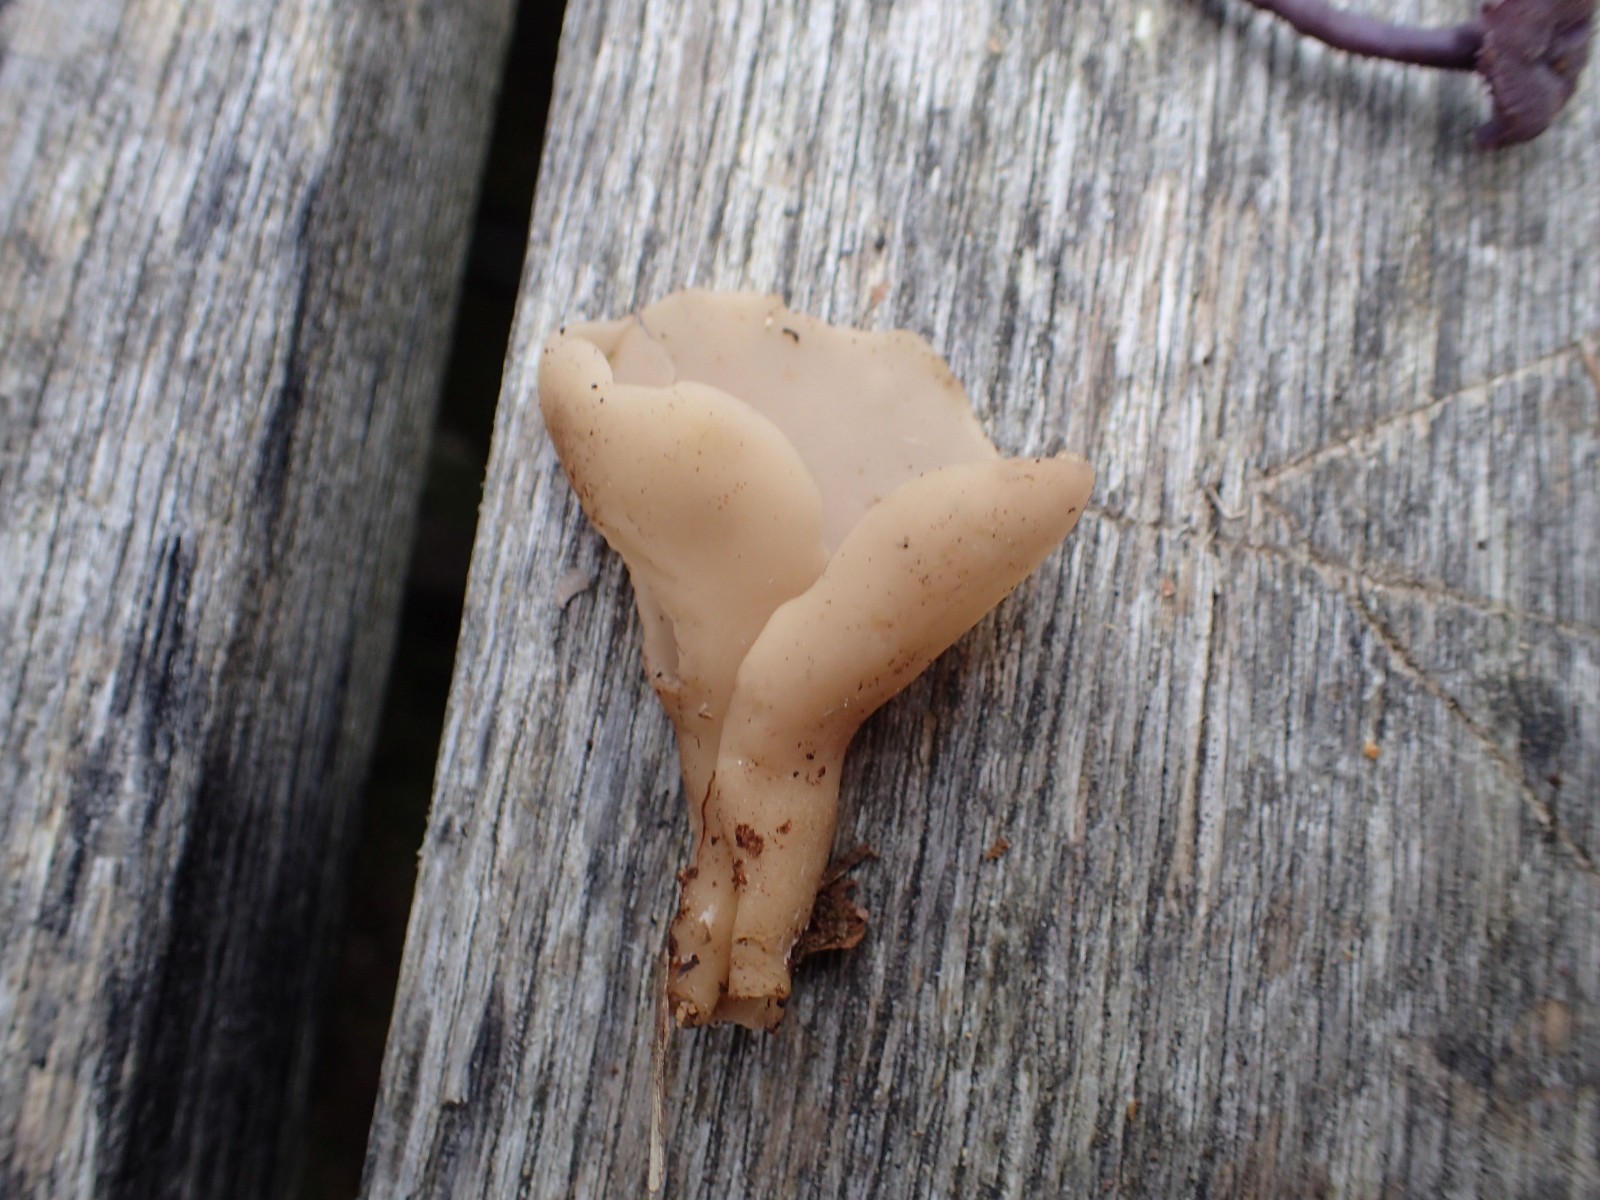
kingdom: Fungi
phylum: Ascomycota
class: Pezizomycetes
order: Pezizales
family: Otideaceae
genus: Otidea
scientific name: Otidea
